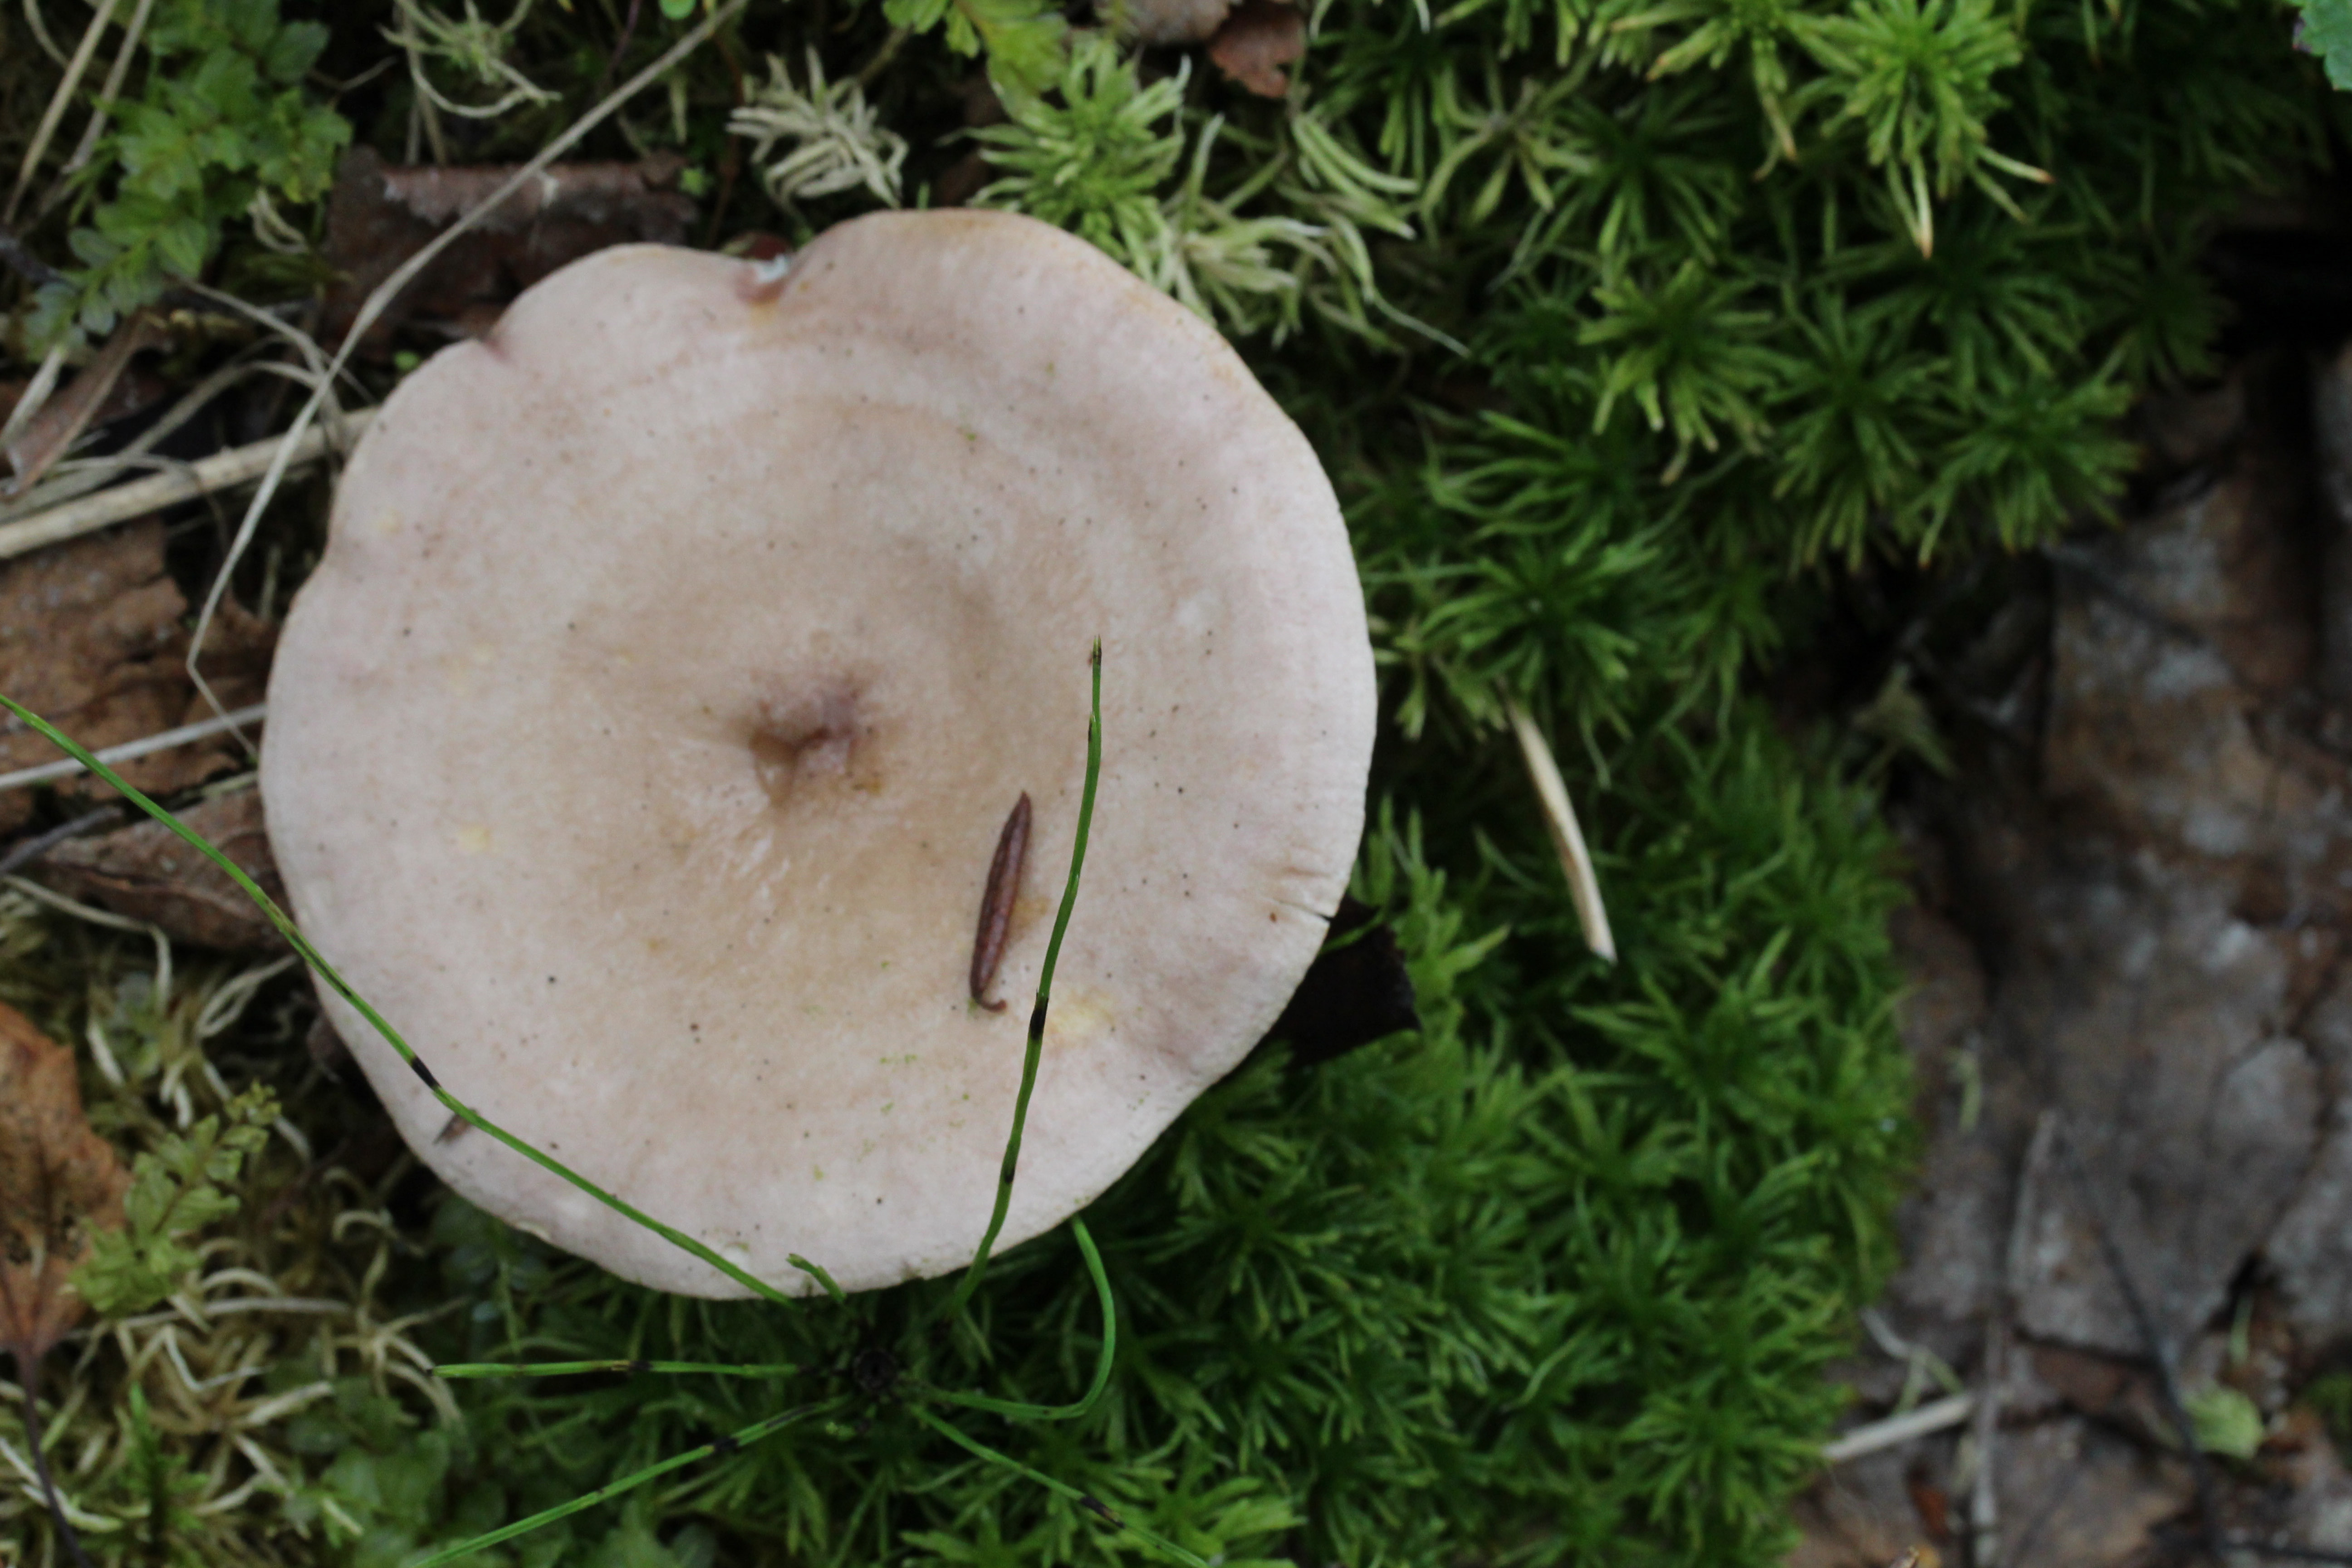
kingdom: Fungi
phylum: Basidiomycota
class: Agaricomycetes
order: Russulales
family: Russulaceae
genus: Lactarius
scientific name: Lactarius uvidus
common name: Shiner milkcap
